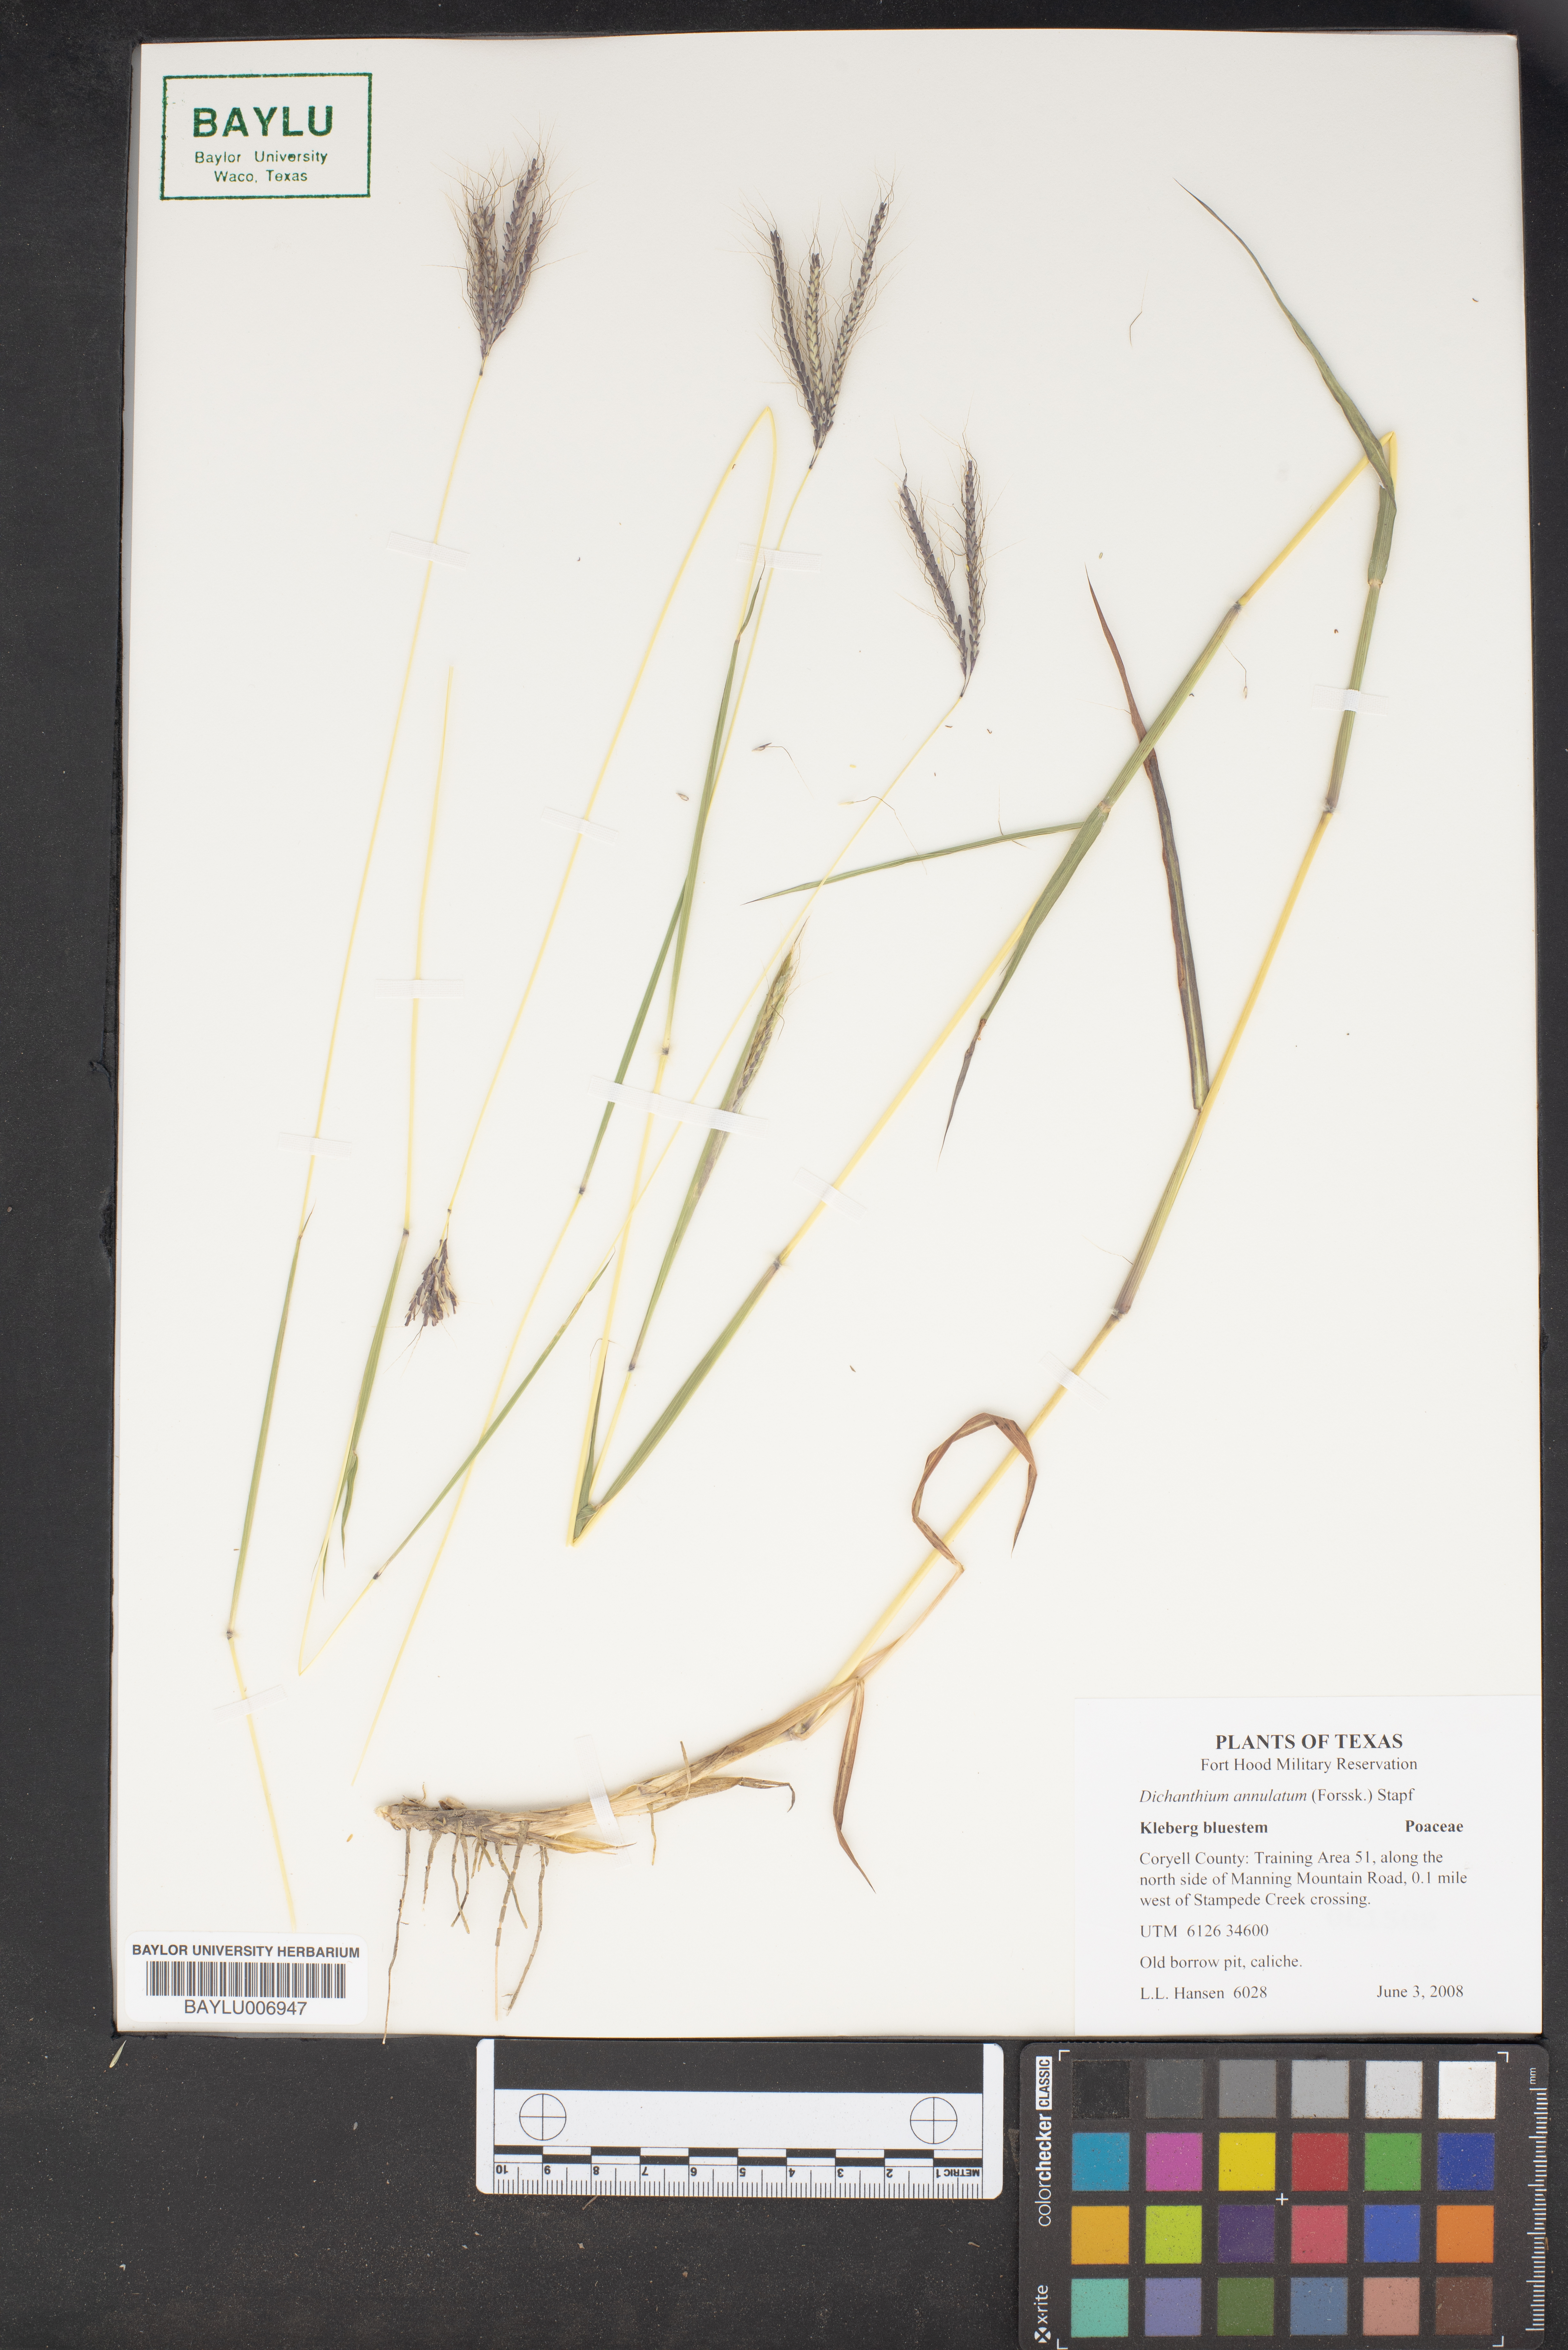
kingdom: Plantae
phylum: Tracheophyta
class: Liliopsida
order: Poales
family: Poaceae
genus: Dichanthium
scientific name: Dichanthium annulatum
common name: Kleberg's bluestem
